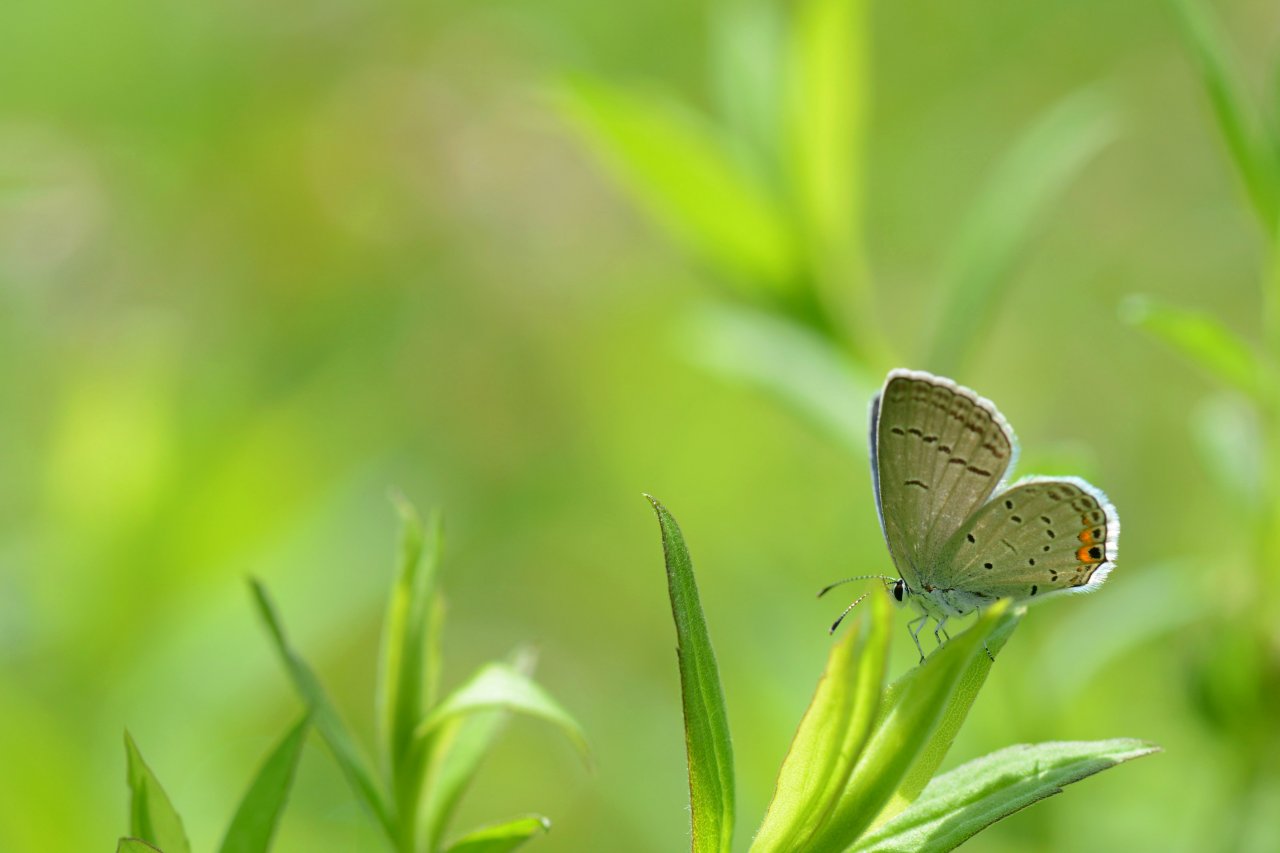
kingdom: Animalia
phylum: Arthropoda
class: Insecta
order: Lepidoptera
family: Lycaenidae
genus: Elkalyce
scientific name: Elkalyce comyntas
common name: Eastern Tailed-Blue
